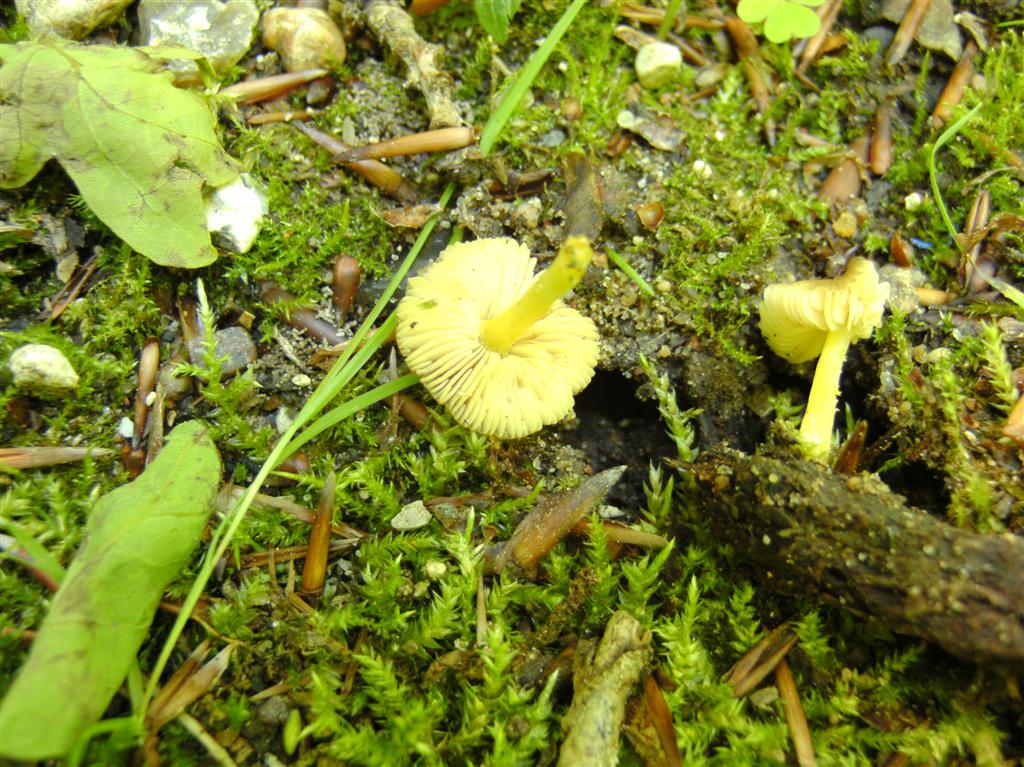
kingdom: Fungi
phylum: Basidiomycota
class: Agaricomycetes
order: Agaricales
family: Pluteaceae
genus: Pluteus
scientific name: Pluteus romellii
